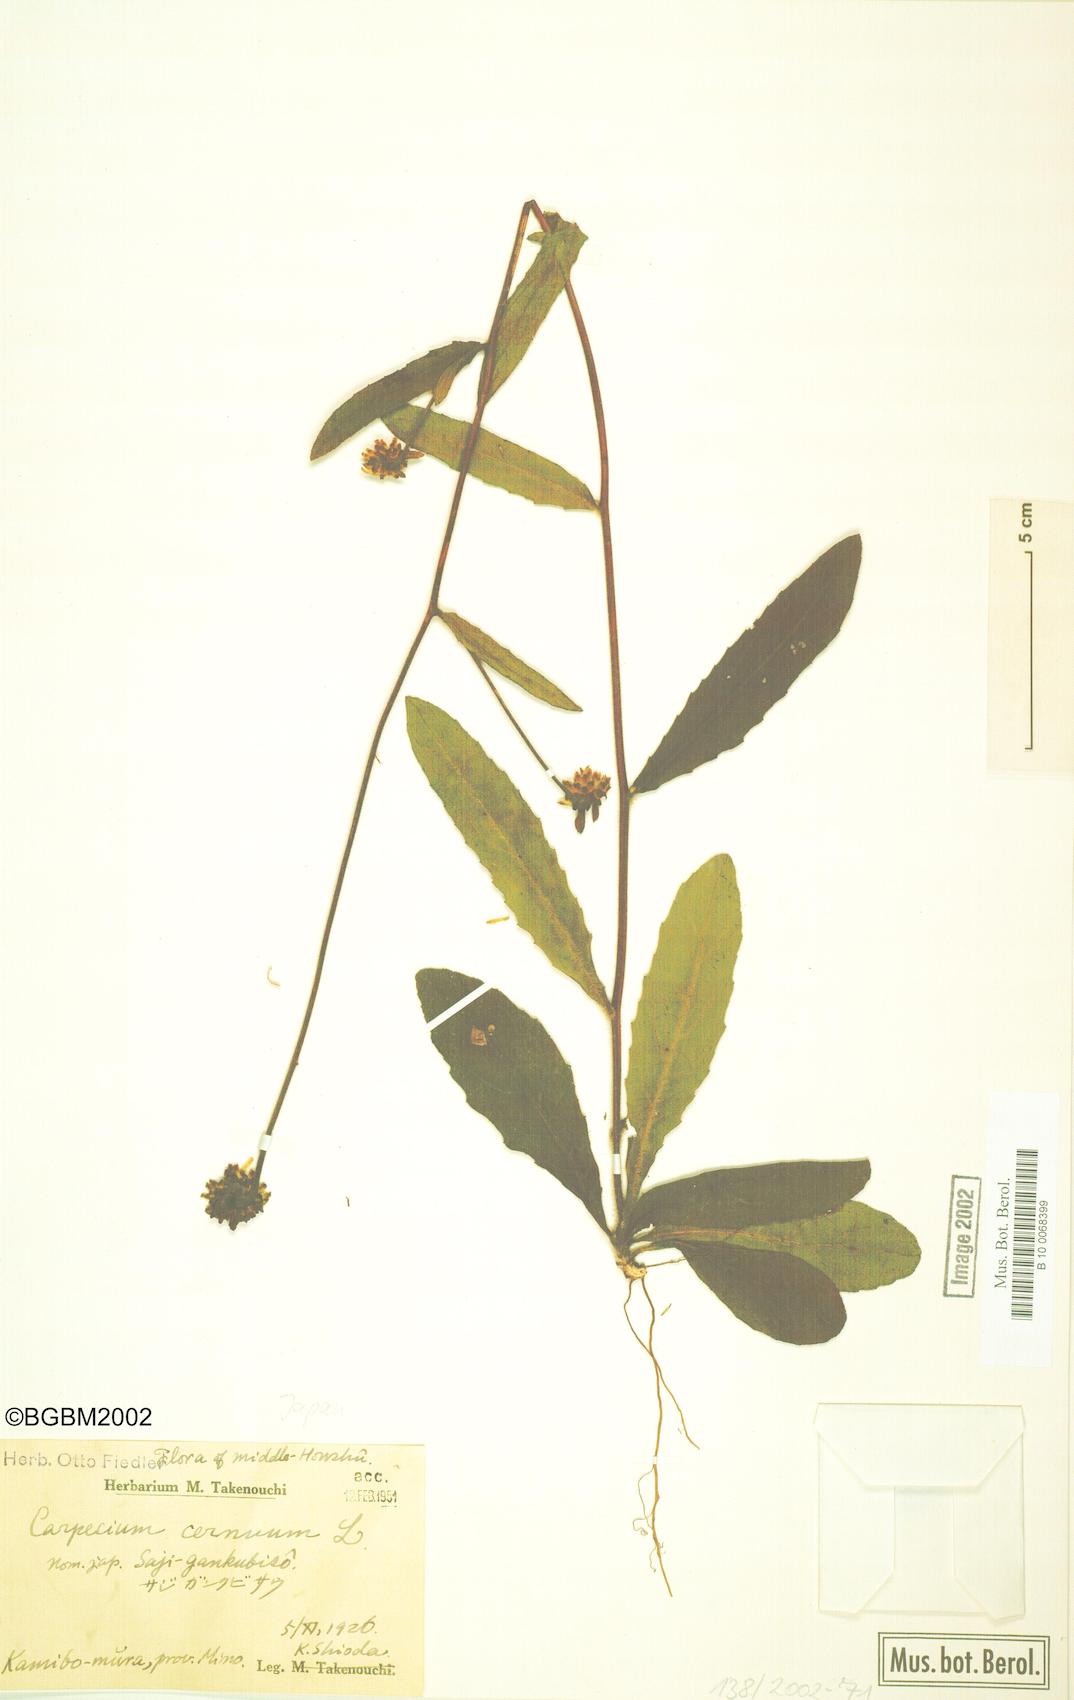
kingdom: Plantae
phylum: Tracheophyta
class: Magnoliopsida
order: Asterales
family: Asteraceae
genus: Carpesium
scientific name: Carpesium glossophyllum
